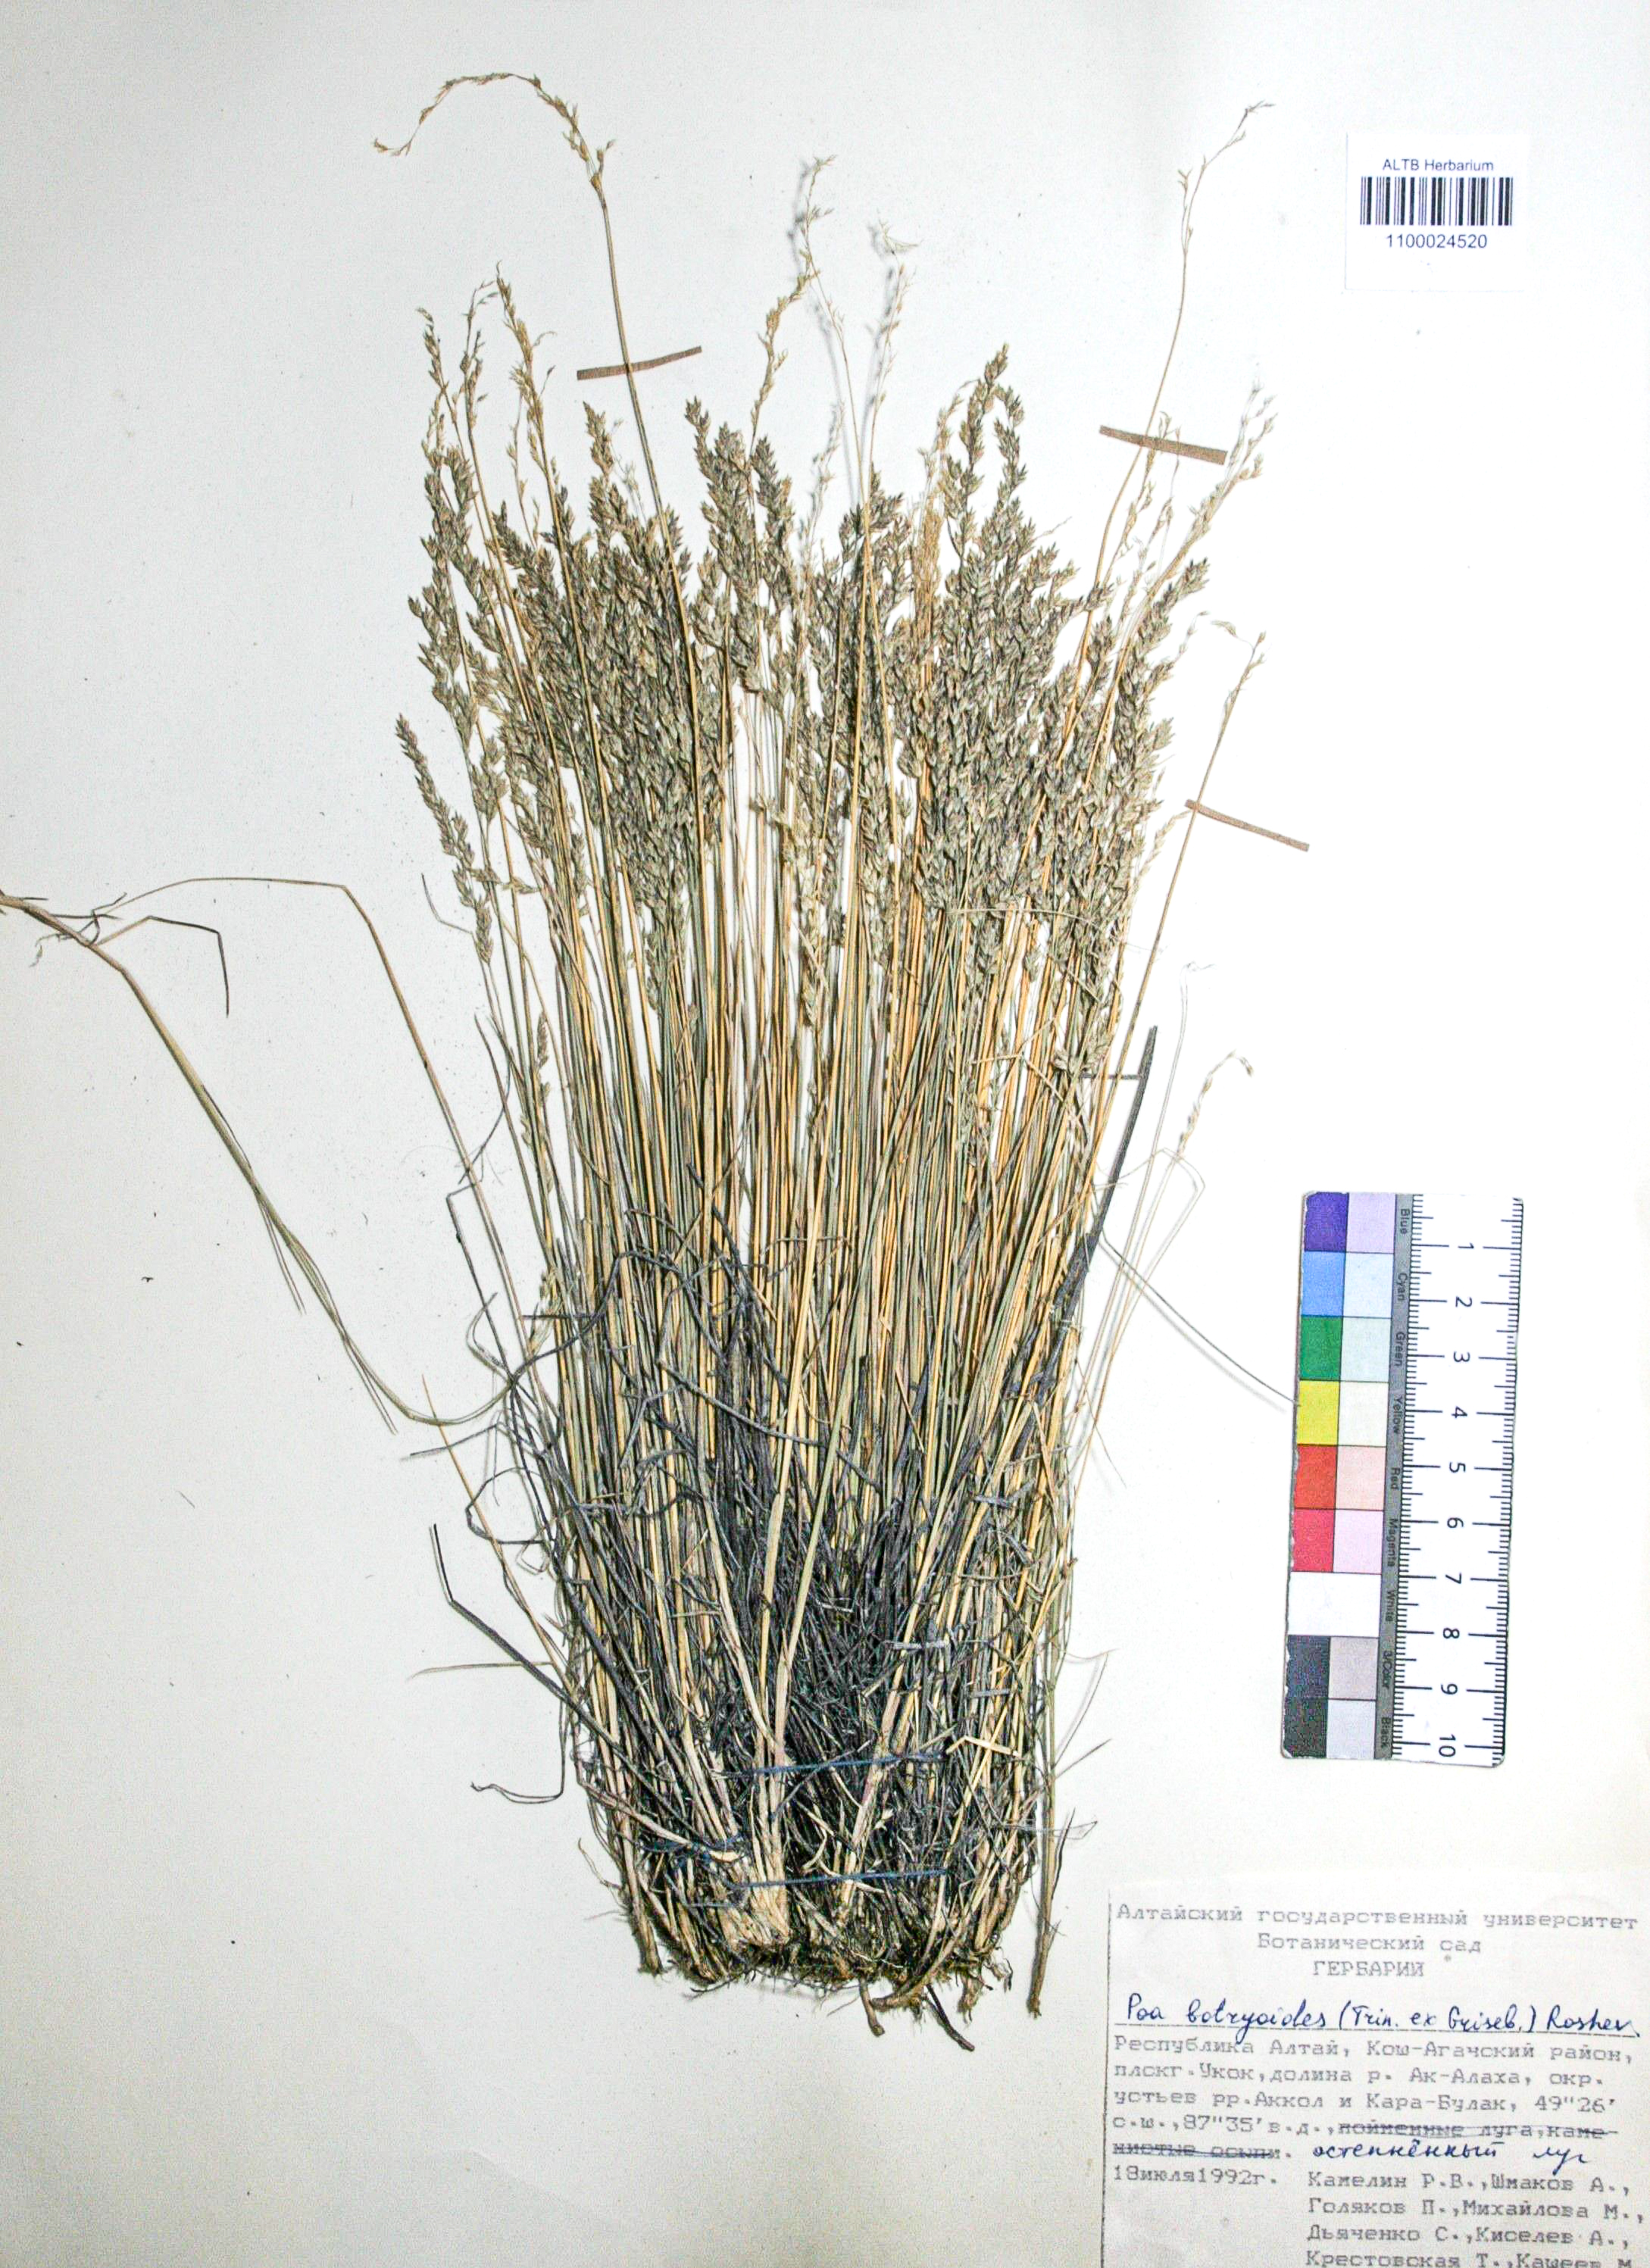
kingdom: Plantae
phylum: Tracheophyta
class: Liliopsida
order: Poales
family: Poaceae
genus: Poa
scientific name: Poa attenuata
